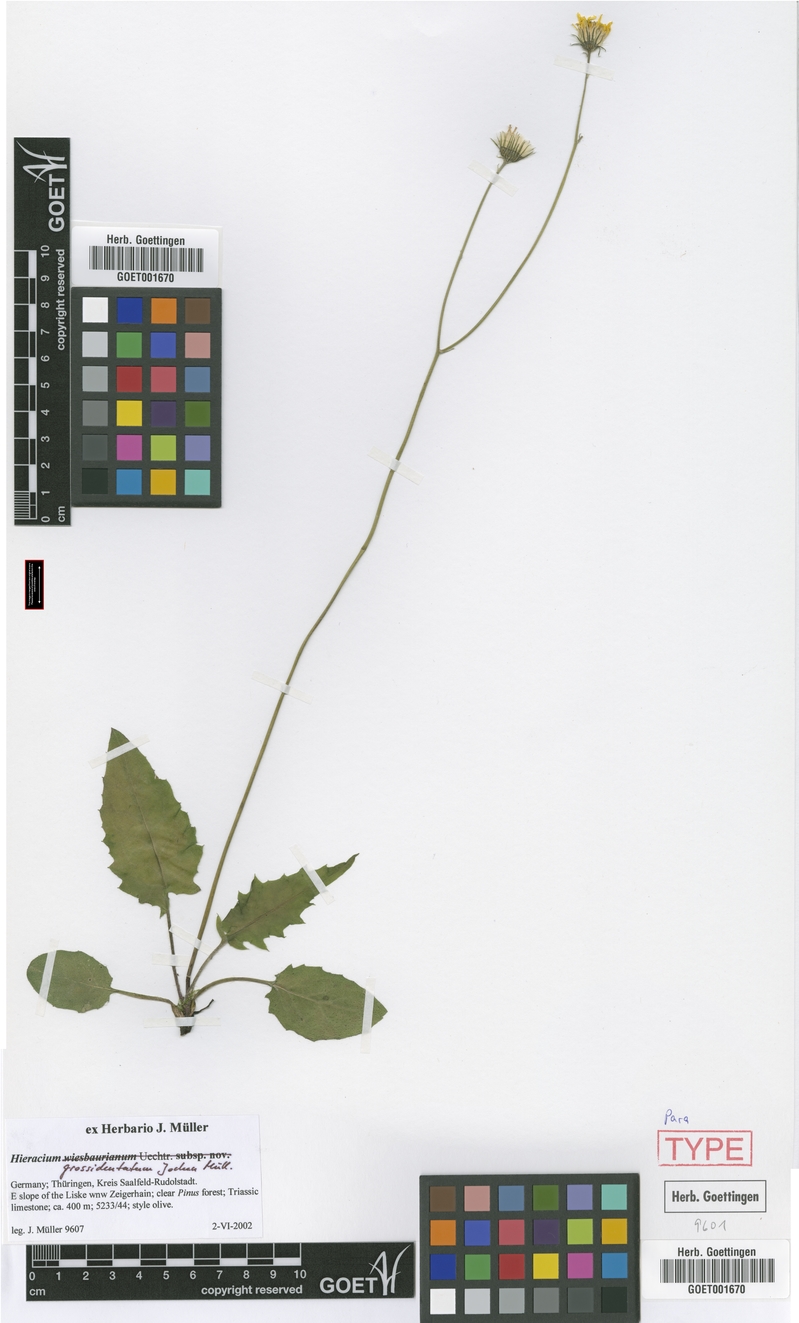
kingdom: Plantae
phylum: Tracheophyta
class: Magnoliopsida
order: Asterales
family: Asteraceae
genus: Hieracium
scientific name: Hieracium hypochoeroides
